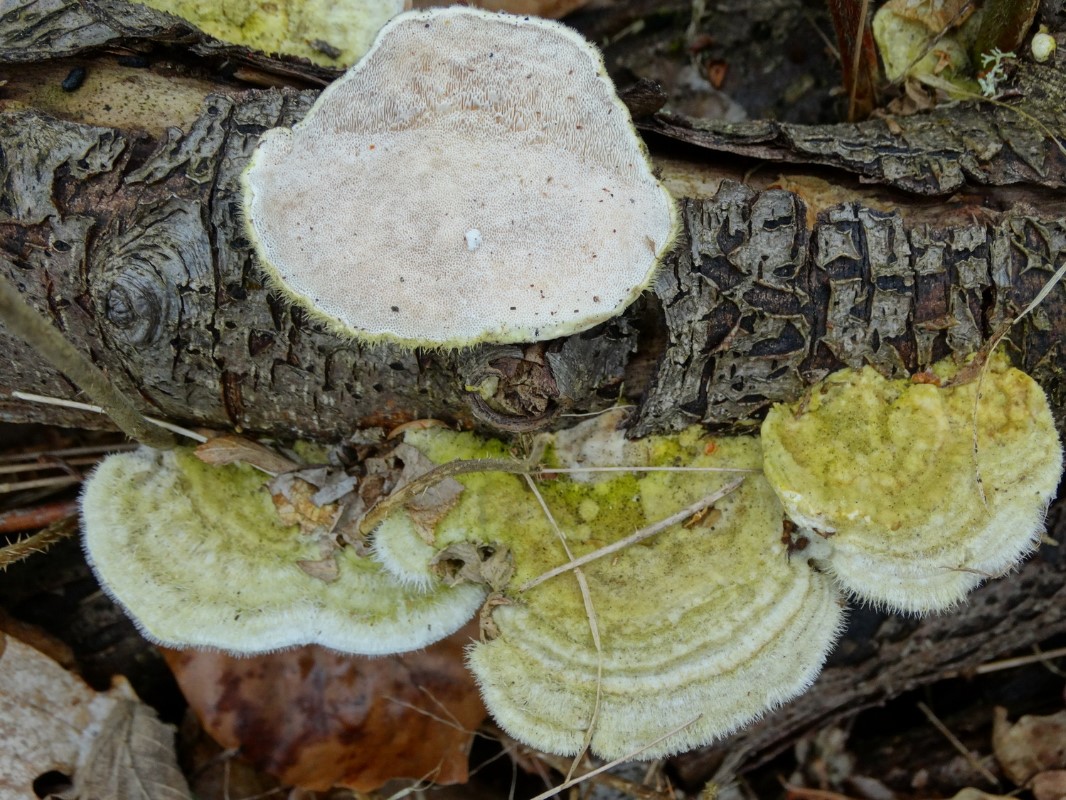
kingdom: Fungi
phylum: Basidiomycota
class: Agaricomycetes
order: Polyporales
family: Polyporaceae
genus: Trametes
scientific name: Trametes hirsuta
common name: håret læderporesvamp
